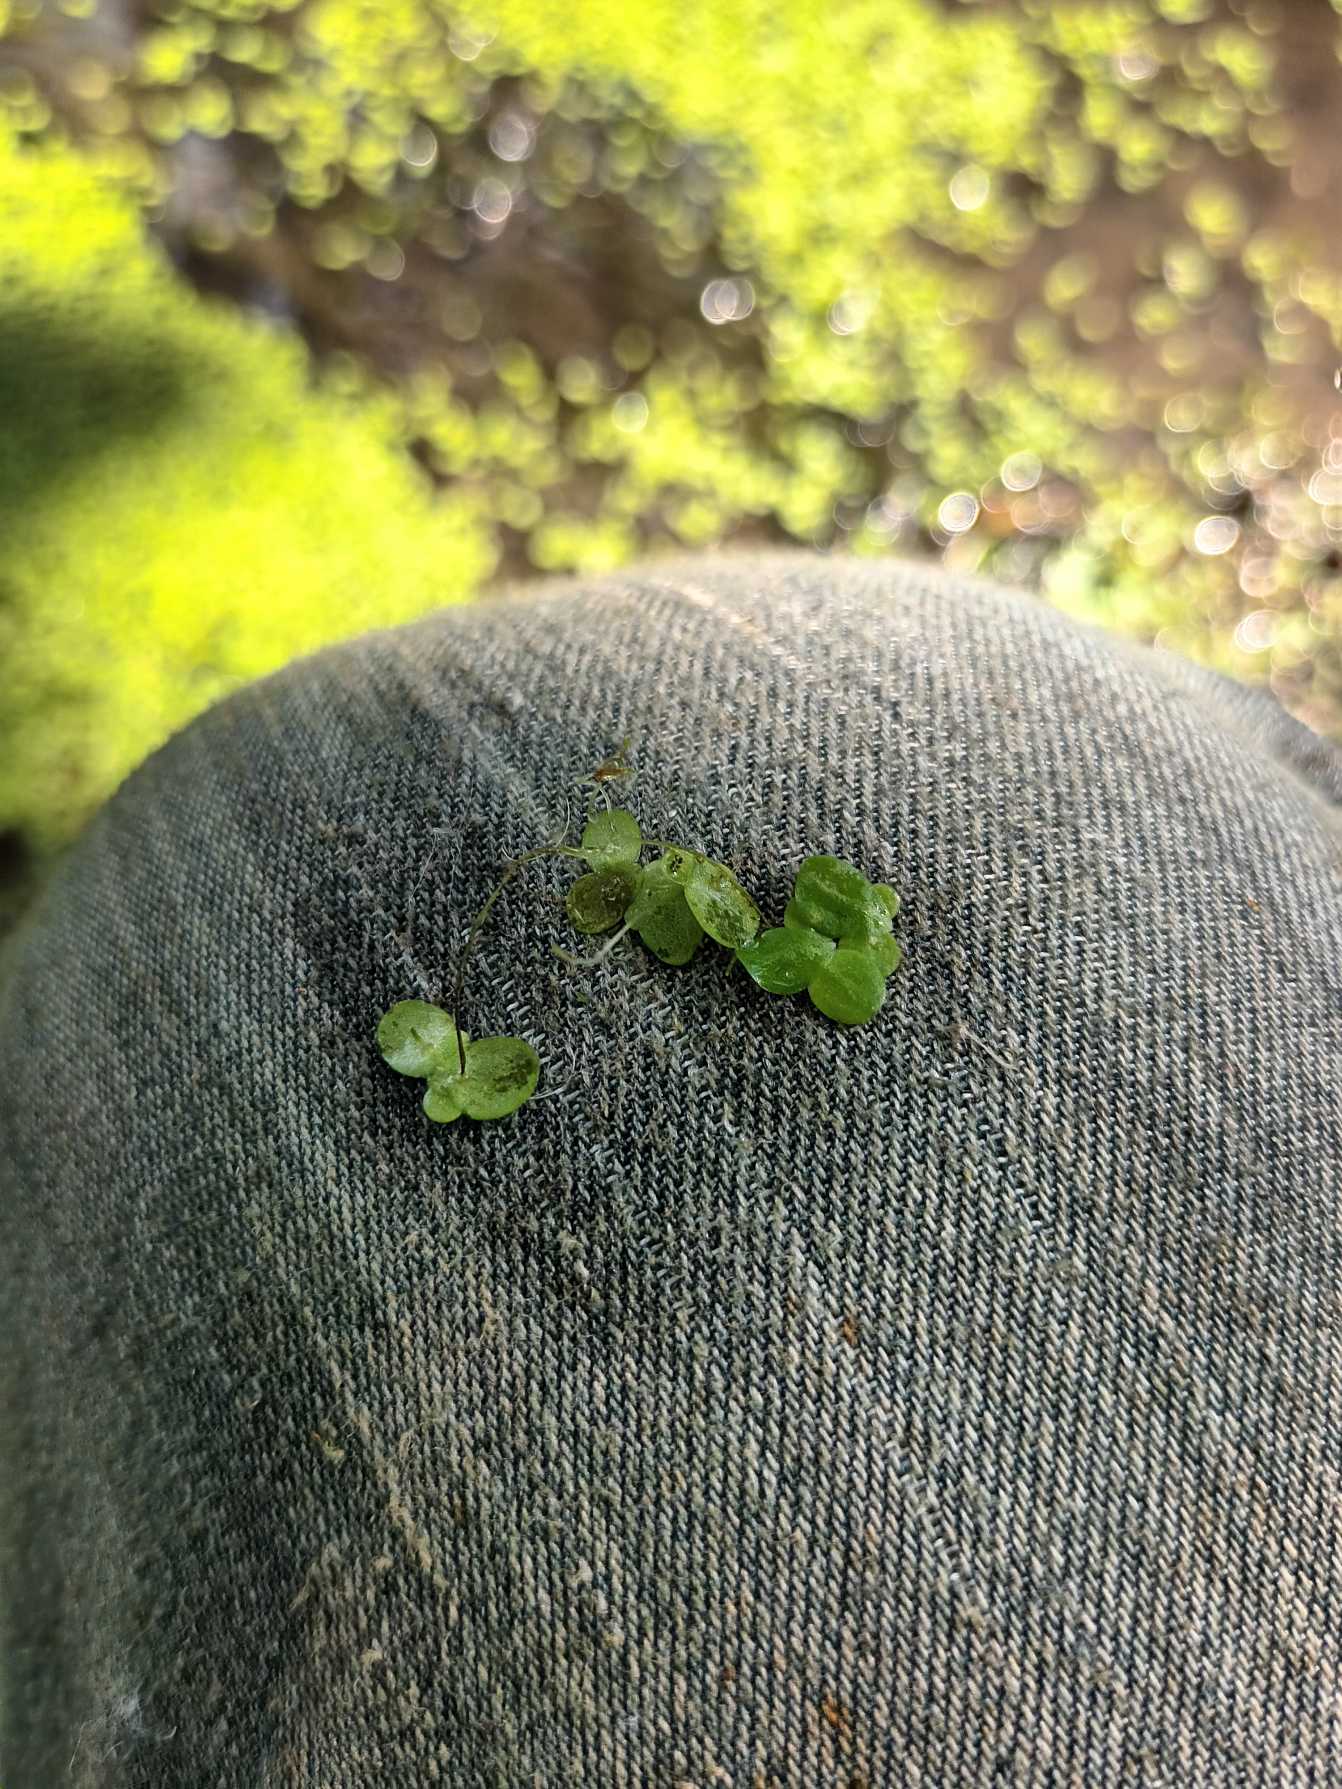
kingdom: Plantae
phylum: Tracheophyta
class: Liliopsida
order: Alismatales
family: Araceae
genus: Lemna
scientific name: Lemna minor
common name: Liden andemad
